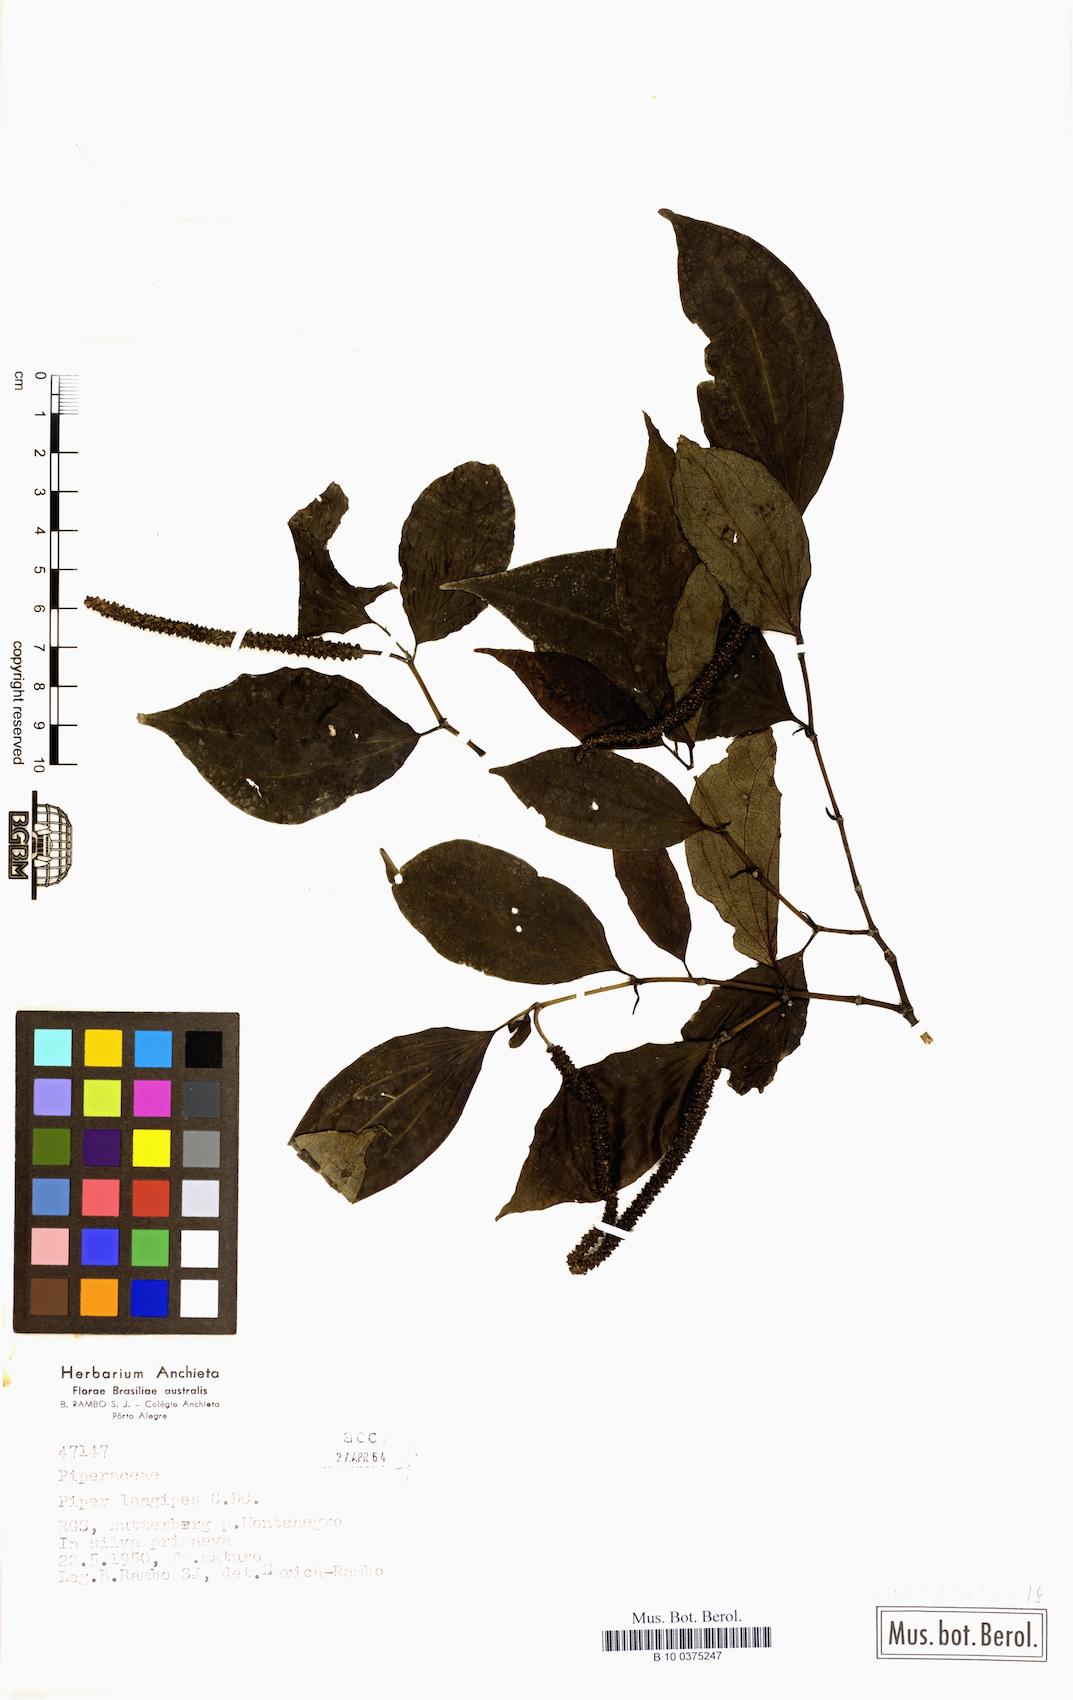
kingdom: Plantae
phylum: Tracheophyta
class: Magnoliopsida
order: Piperales
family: Piperaceae
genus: Piper
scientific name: Piper longipes
